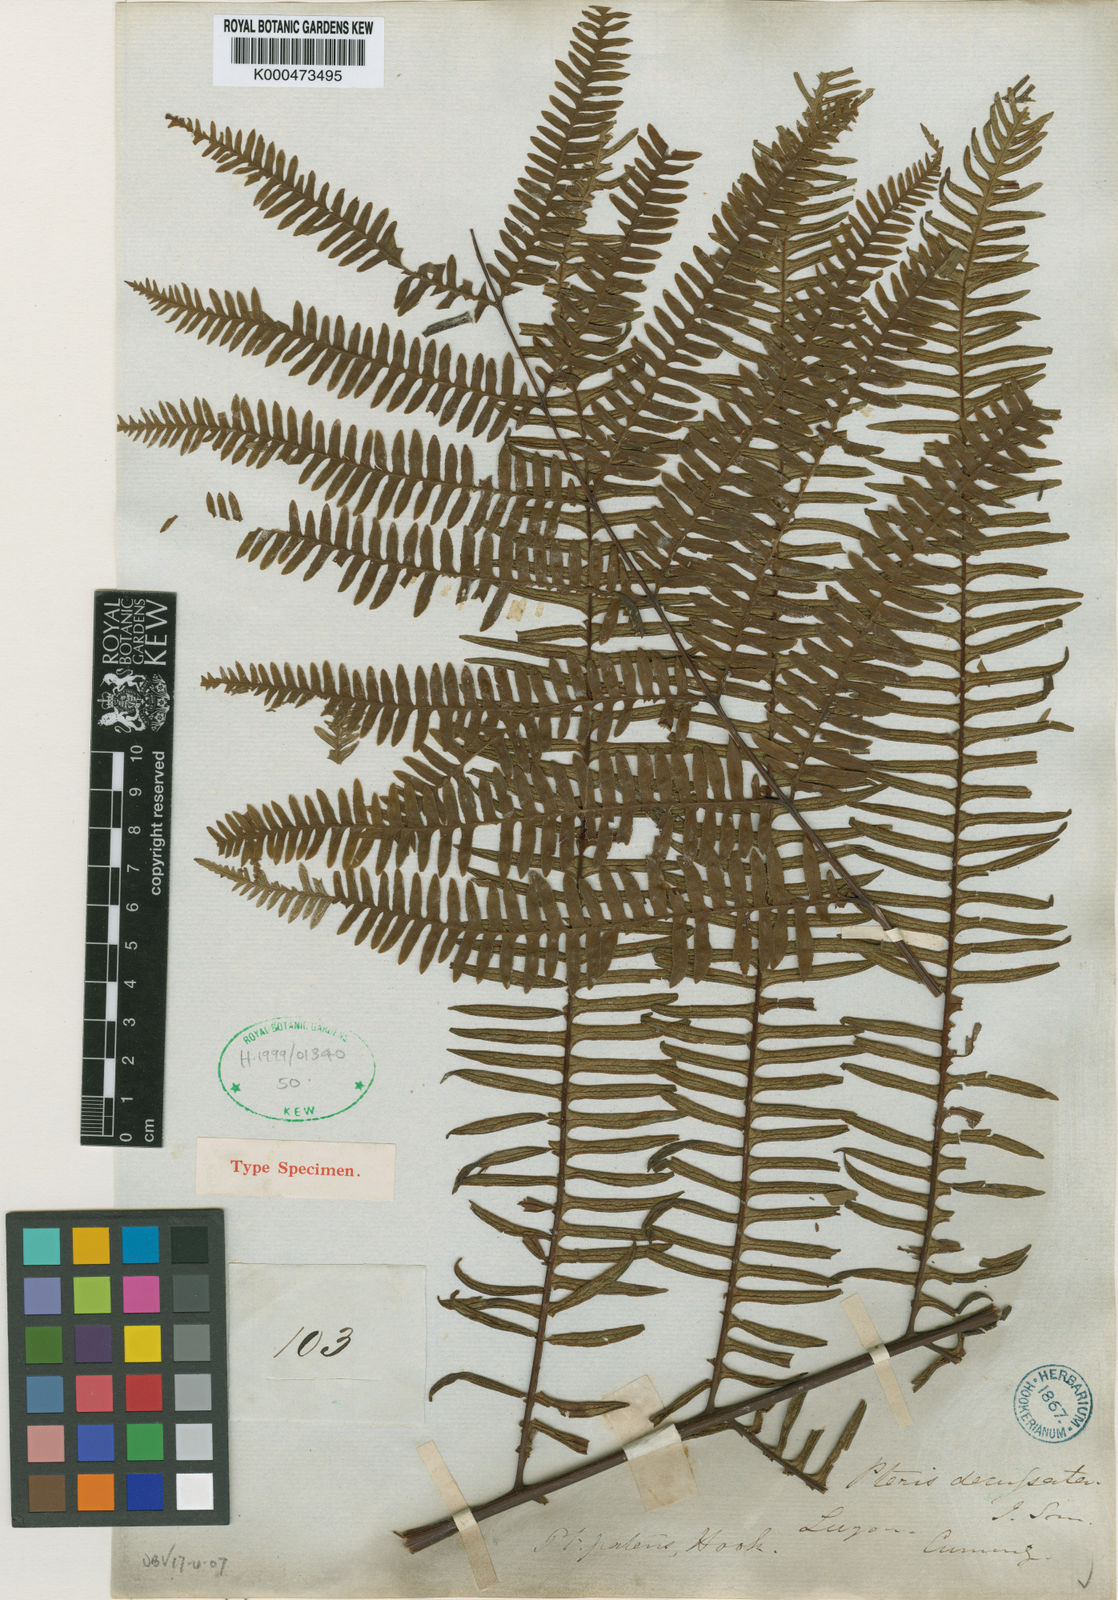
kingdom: Plantae
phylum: Tracheophyta
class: Polypodiopsida
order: Polypodiales
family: Pteridaceae
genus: Pteris
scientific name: Pteris mertensioides
